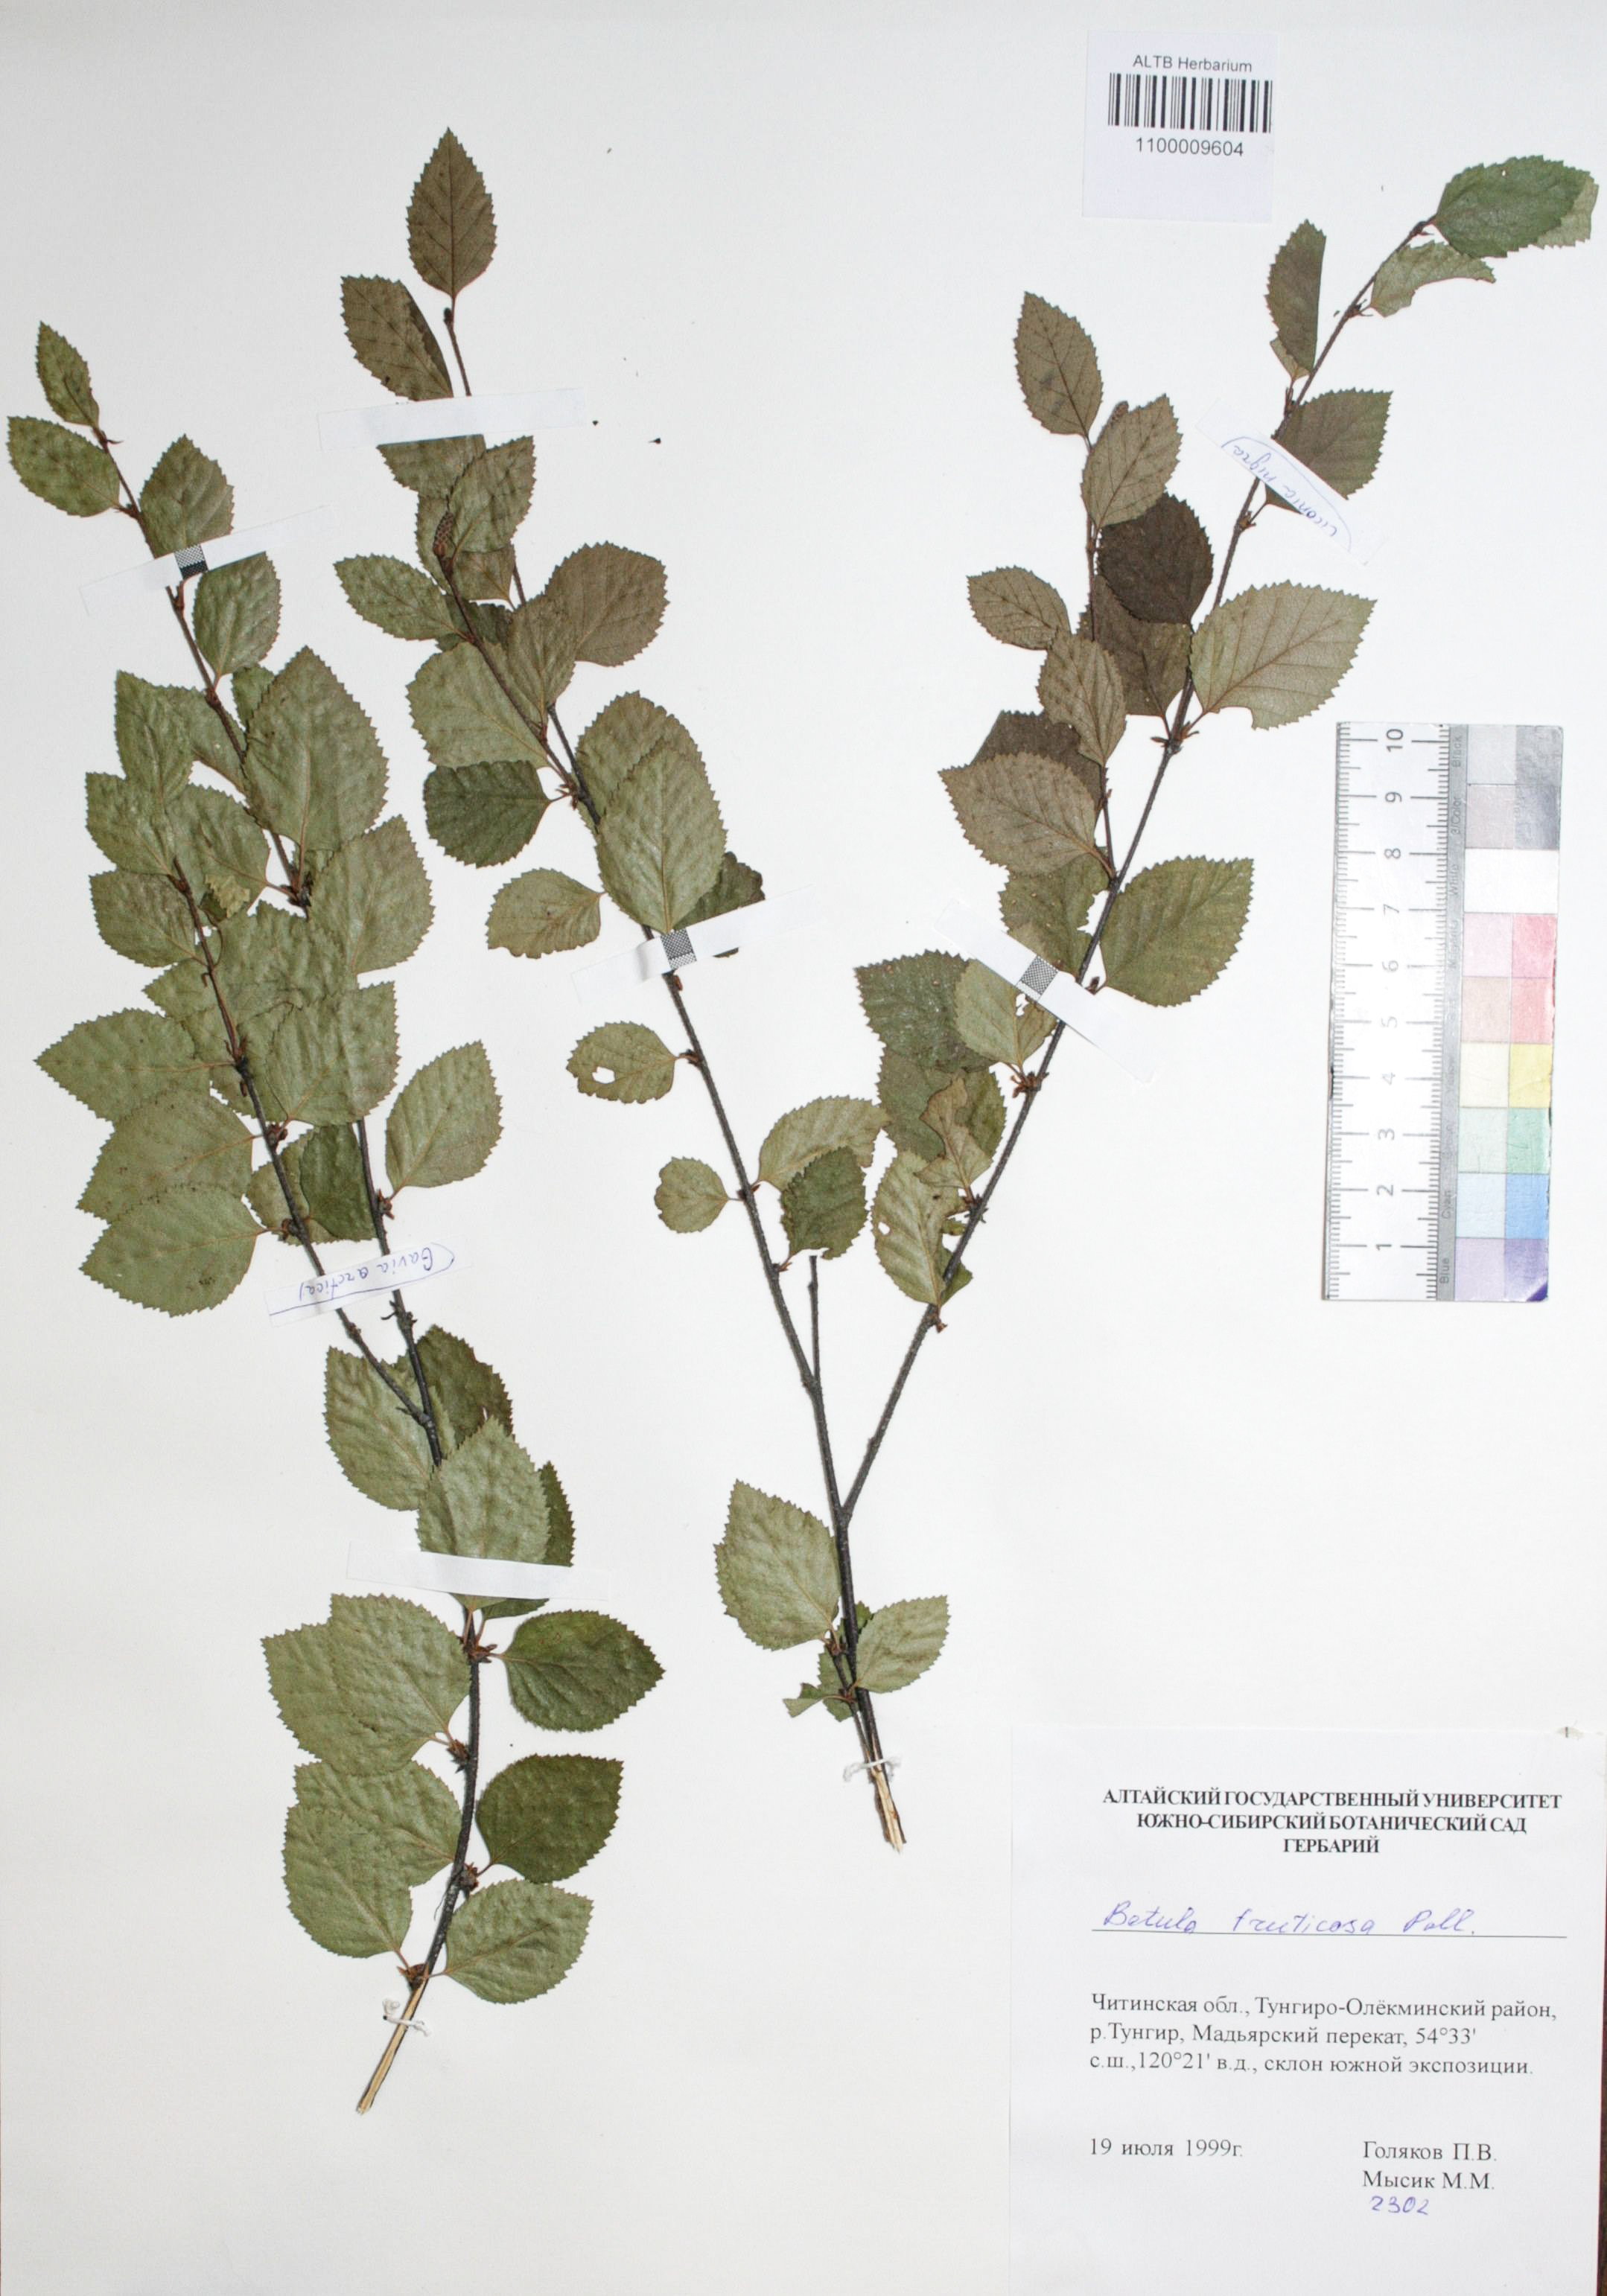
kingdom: Plantae
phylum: Tracheophyta
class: Magnoliopsida
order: Fagales
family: Betulaceae
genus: Betula
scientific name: Betula fruticosa
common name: Japanese bog birch
